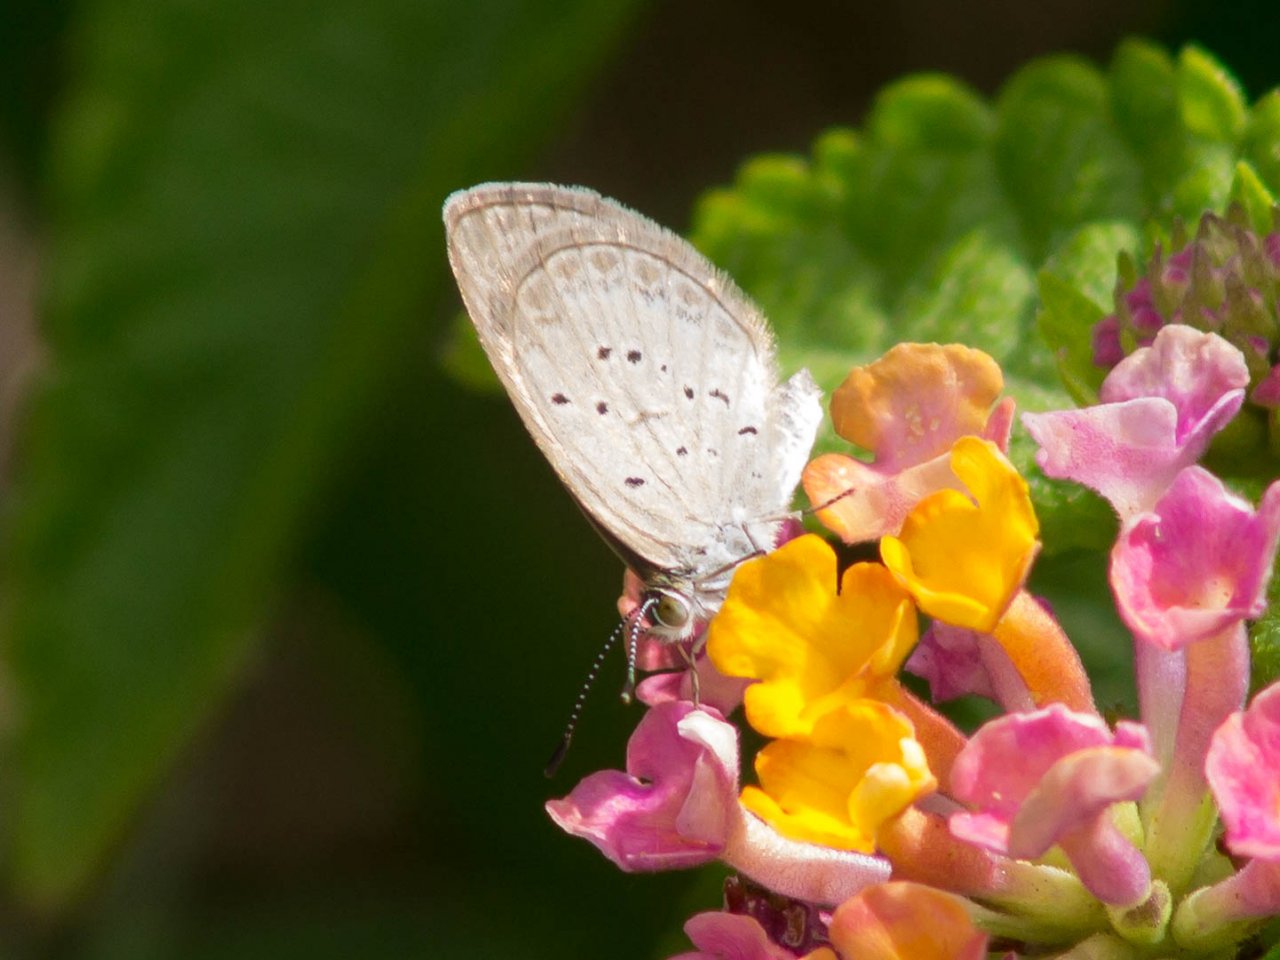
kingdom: Animalia
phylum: Arthropoda
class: Insecta
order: Lepidoptera
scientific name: Lepidoptera
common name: Butterflies
